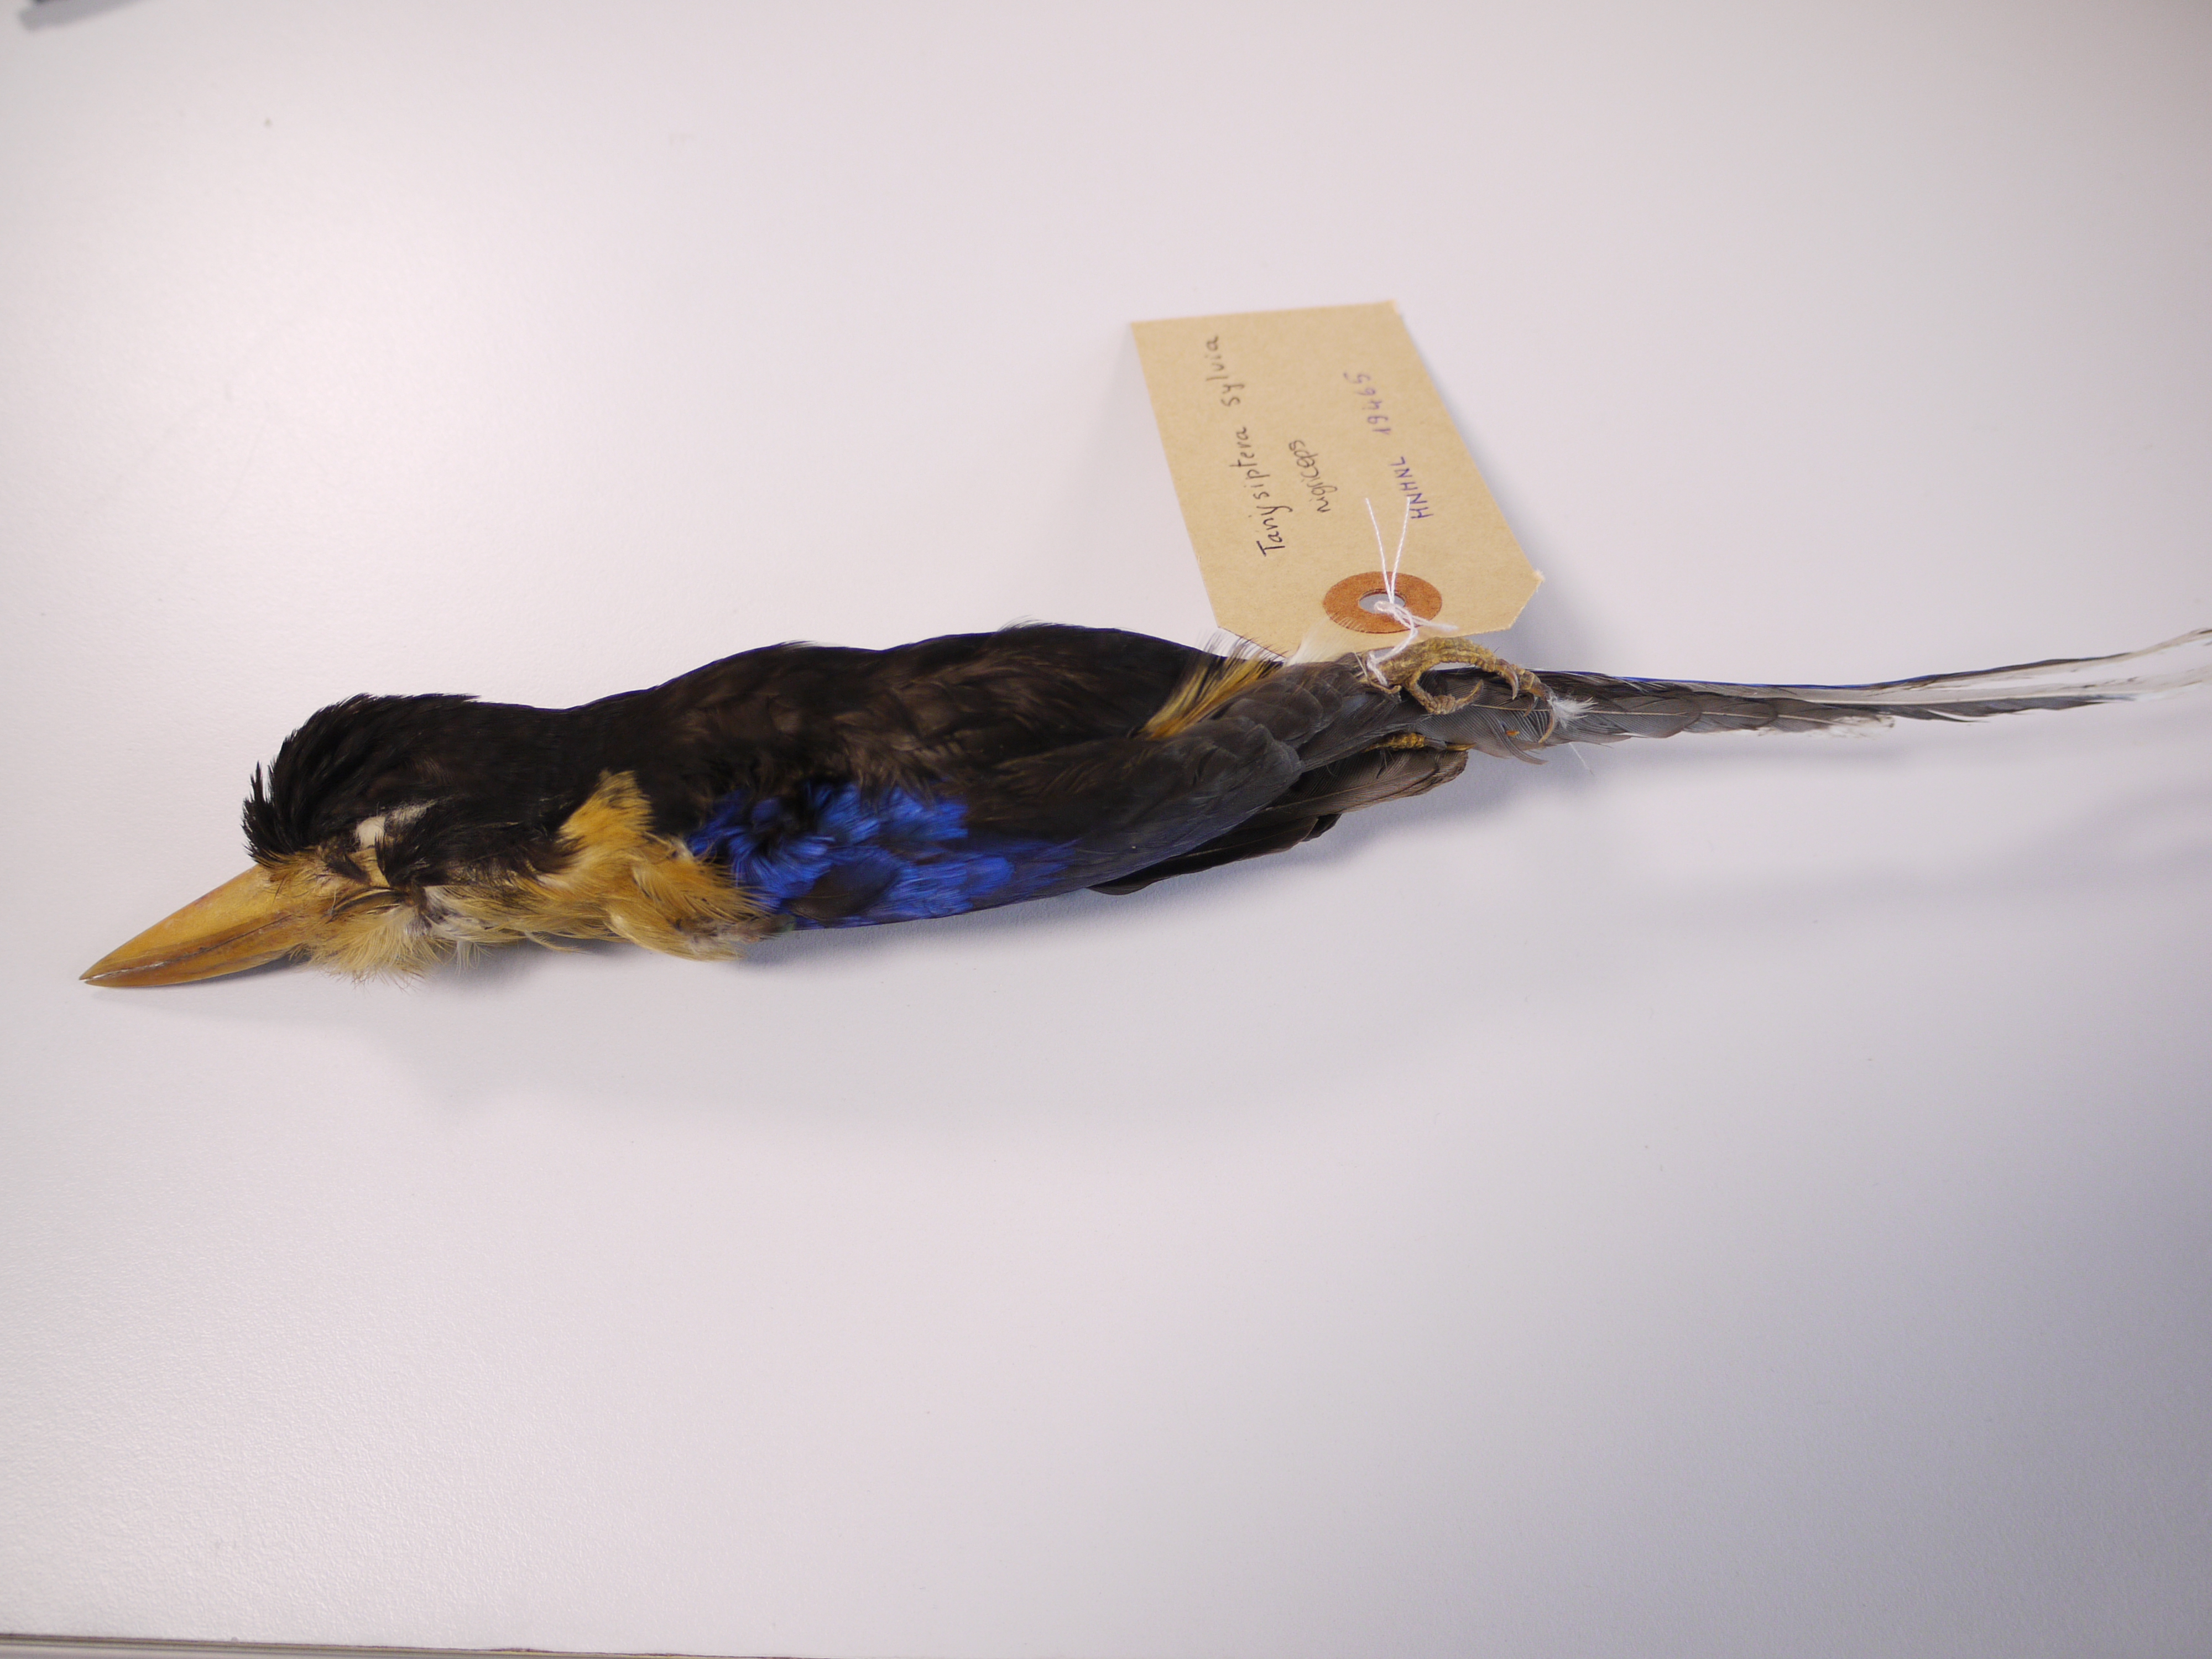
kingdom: Animalia
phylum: Chordata
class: Aves
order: Coraciiformes
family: Alcedinidae
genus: Tanysiptera
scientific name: Tanysiptera nigriceps
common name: Black-capped paradise kingfisher
